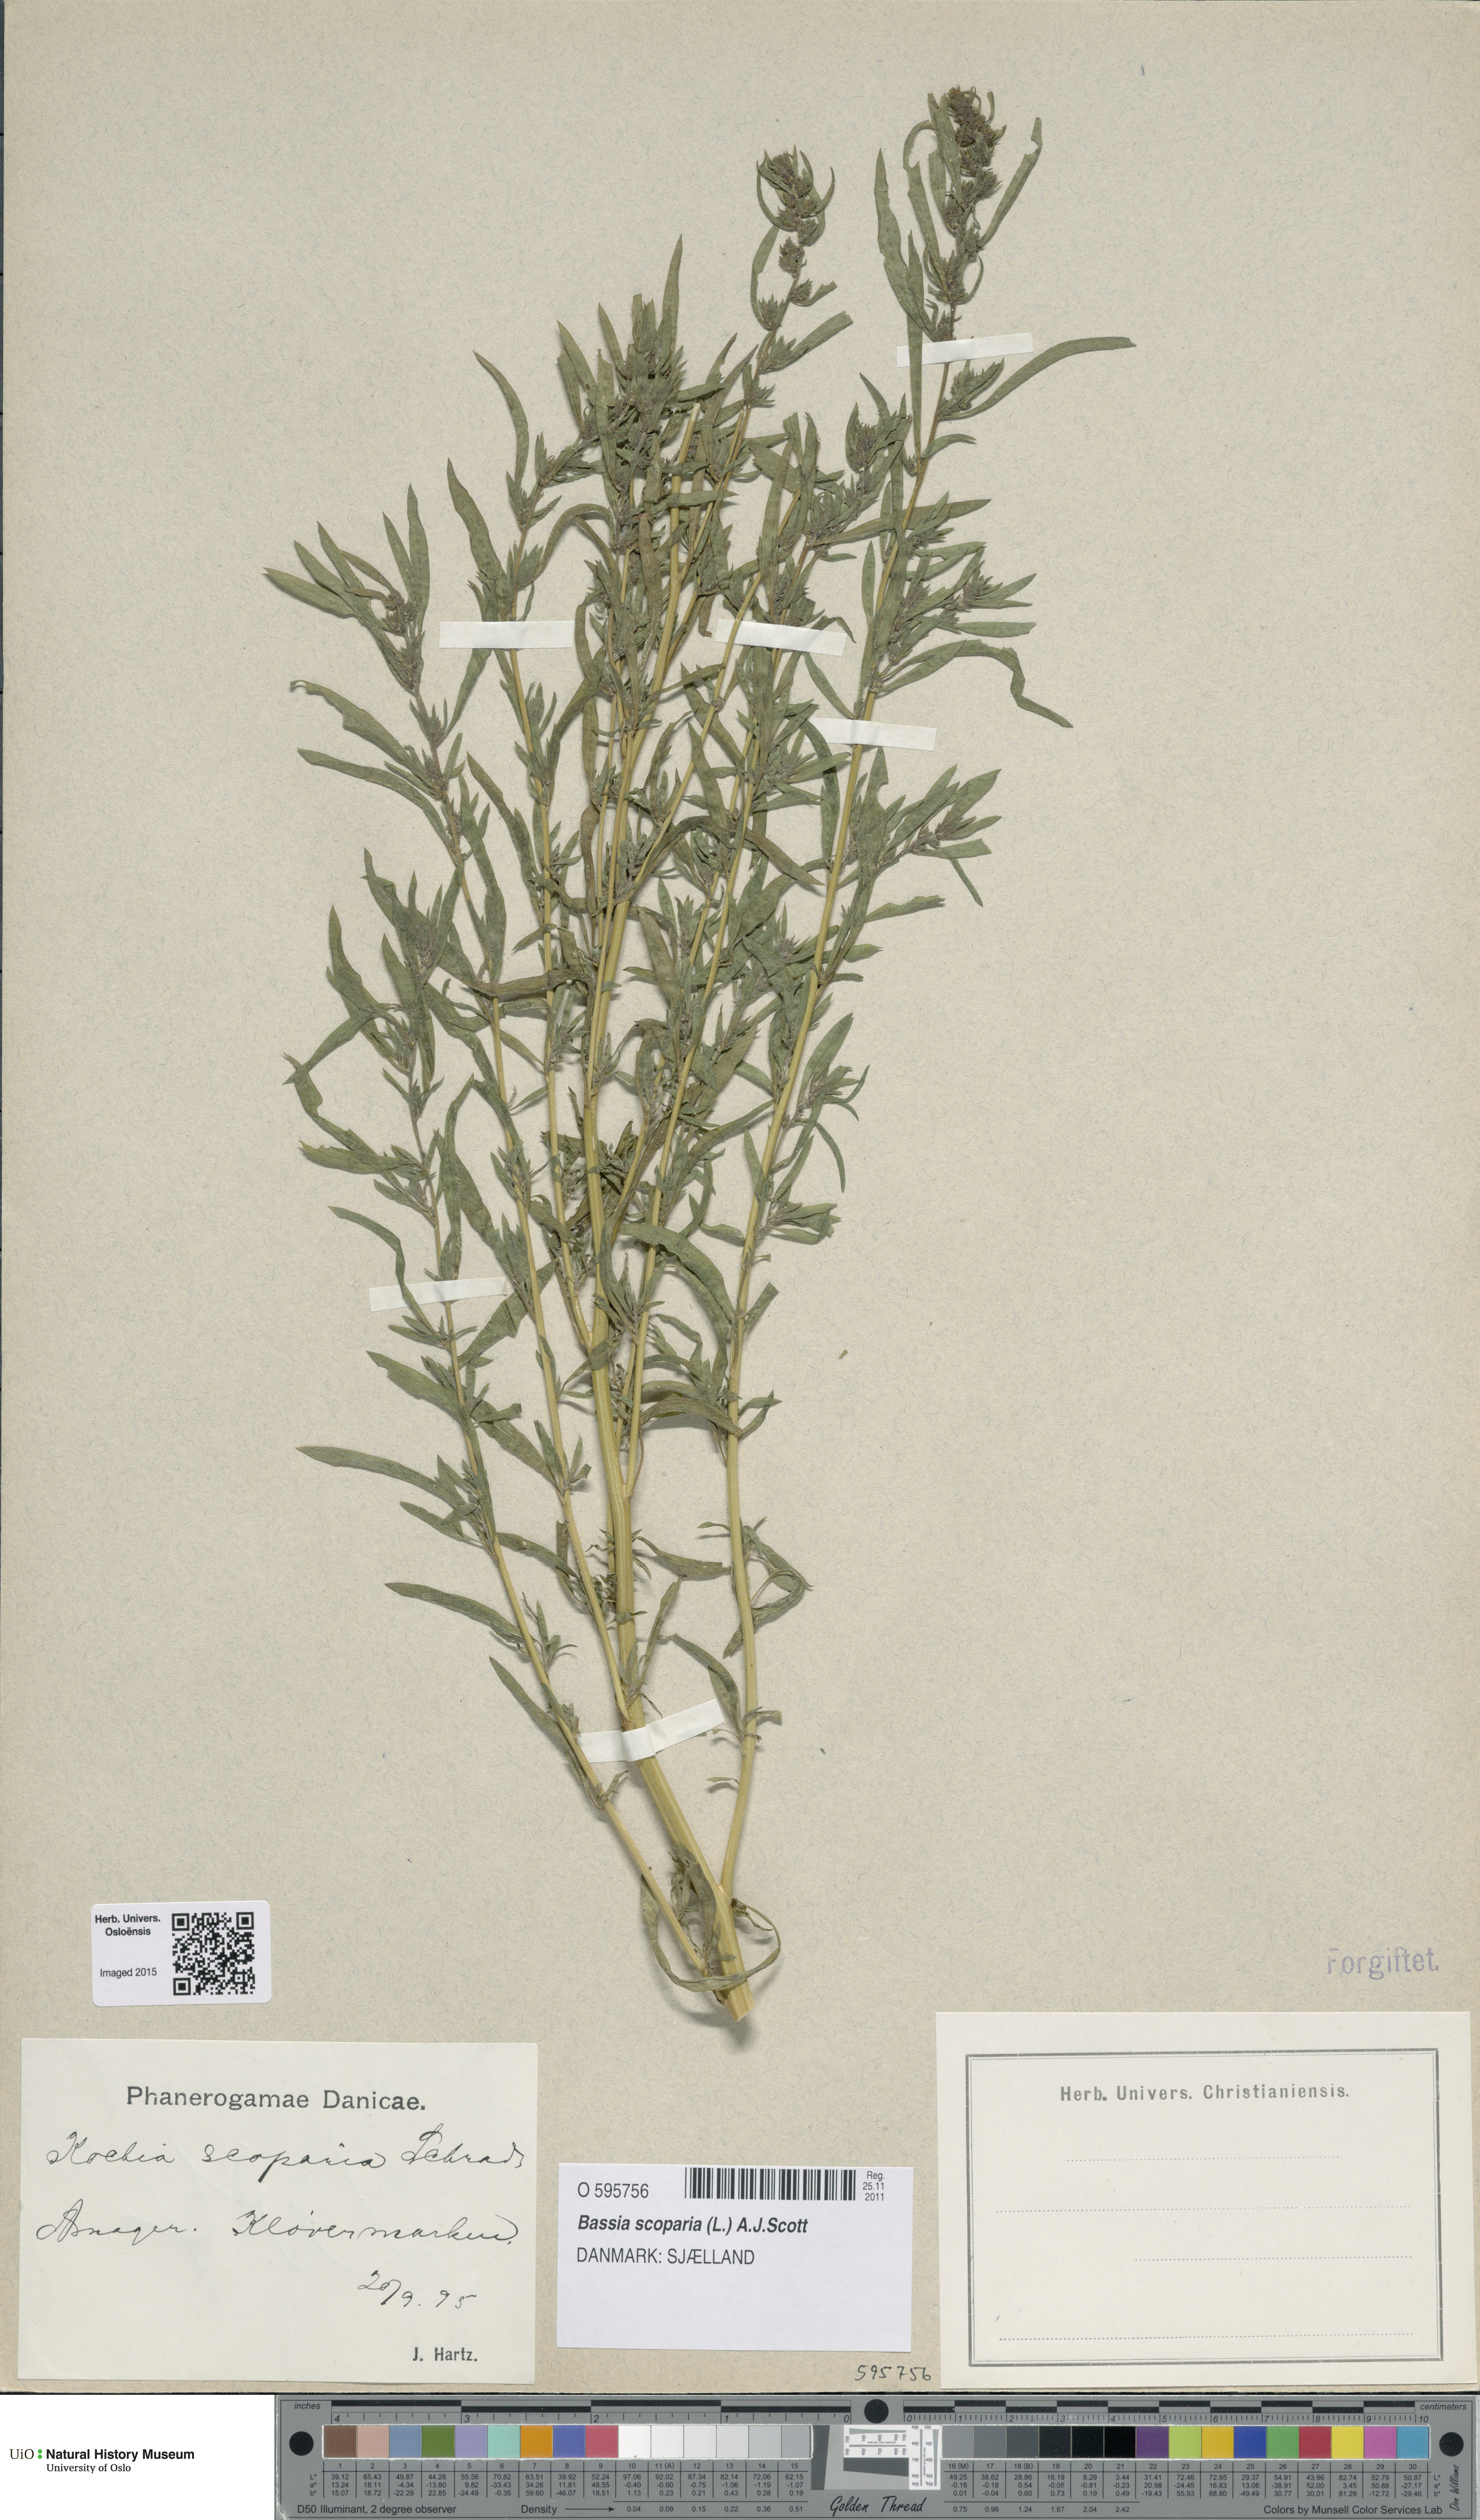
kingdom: Plantae
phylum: Tracheophyta
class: Magnoliopsida
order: Caryophyllales
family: Amaranthaceae
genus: Bassia
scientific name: Bassia scoparia
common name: Belvedere
